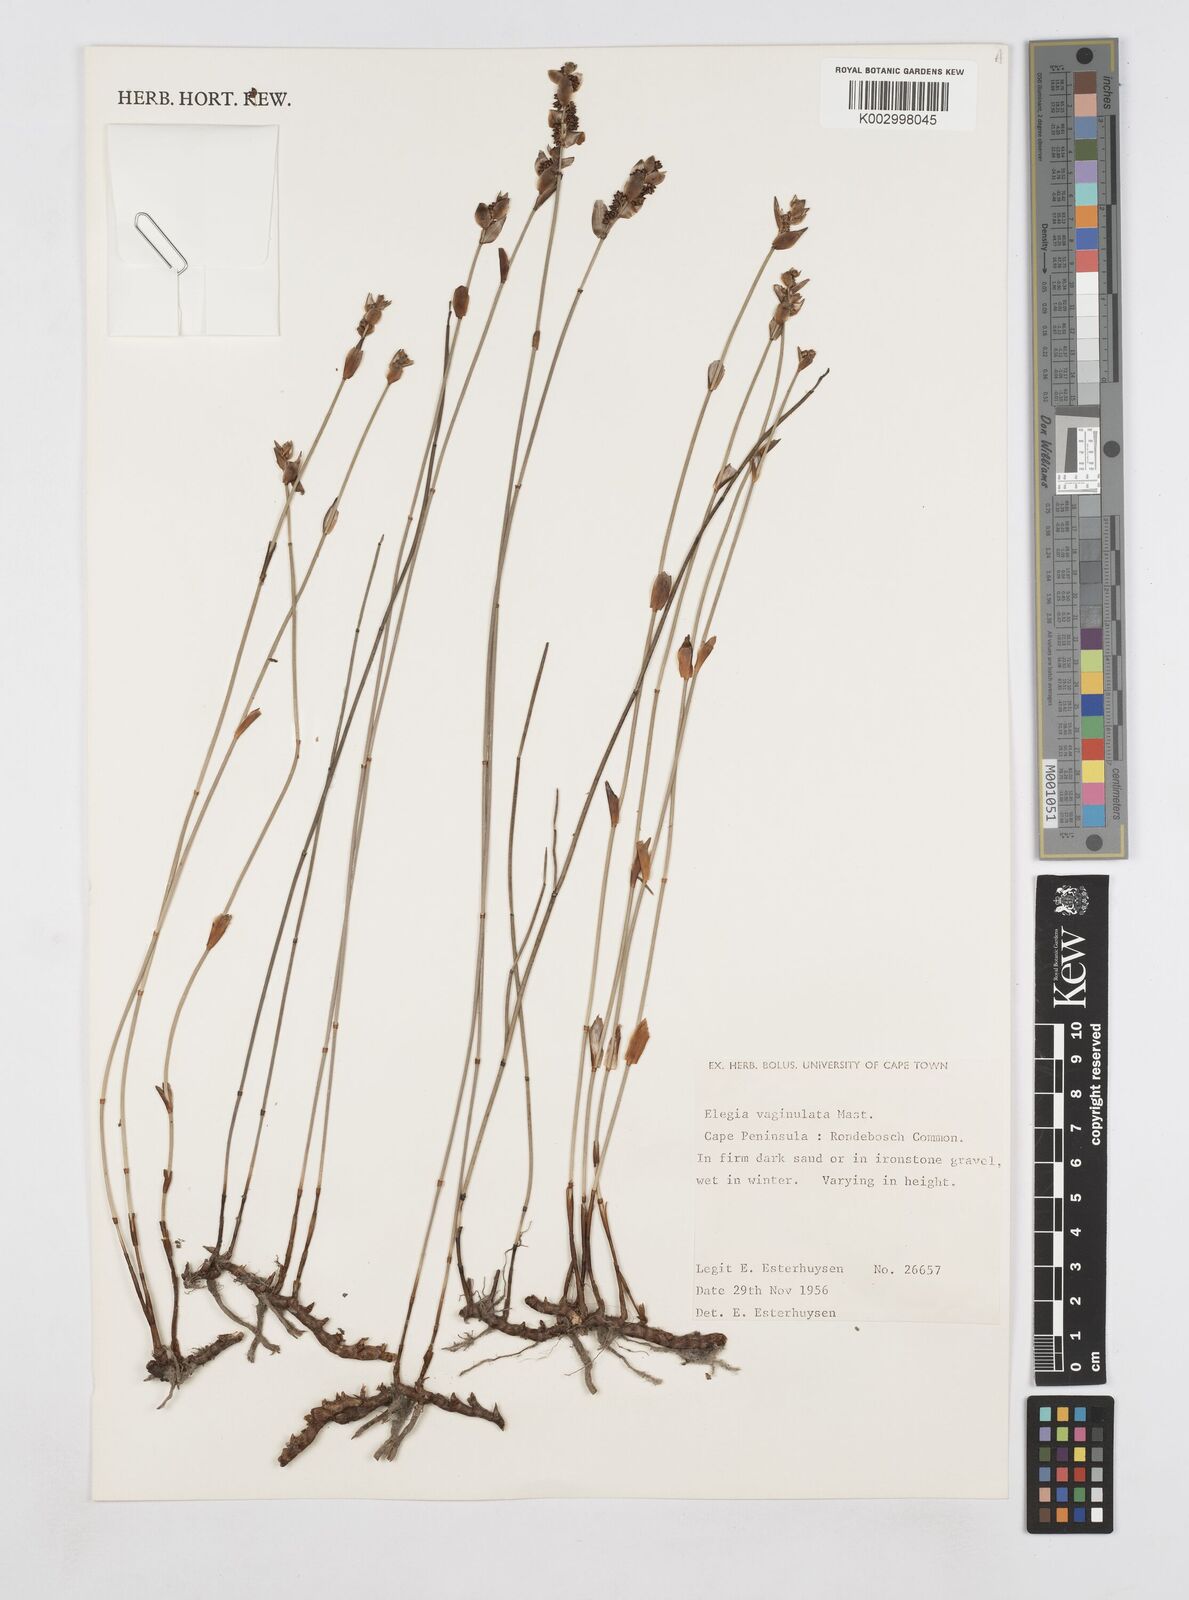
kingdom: Plantae
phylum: Tracheophyta
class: Liliopsida
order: Poales
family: Restionaceae
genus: Elegia
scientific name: Elegia vaginulata
